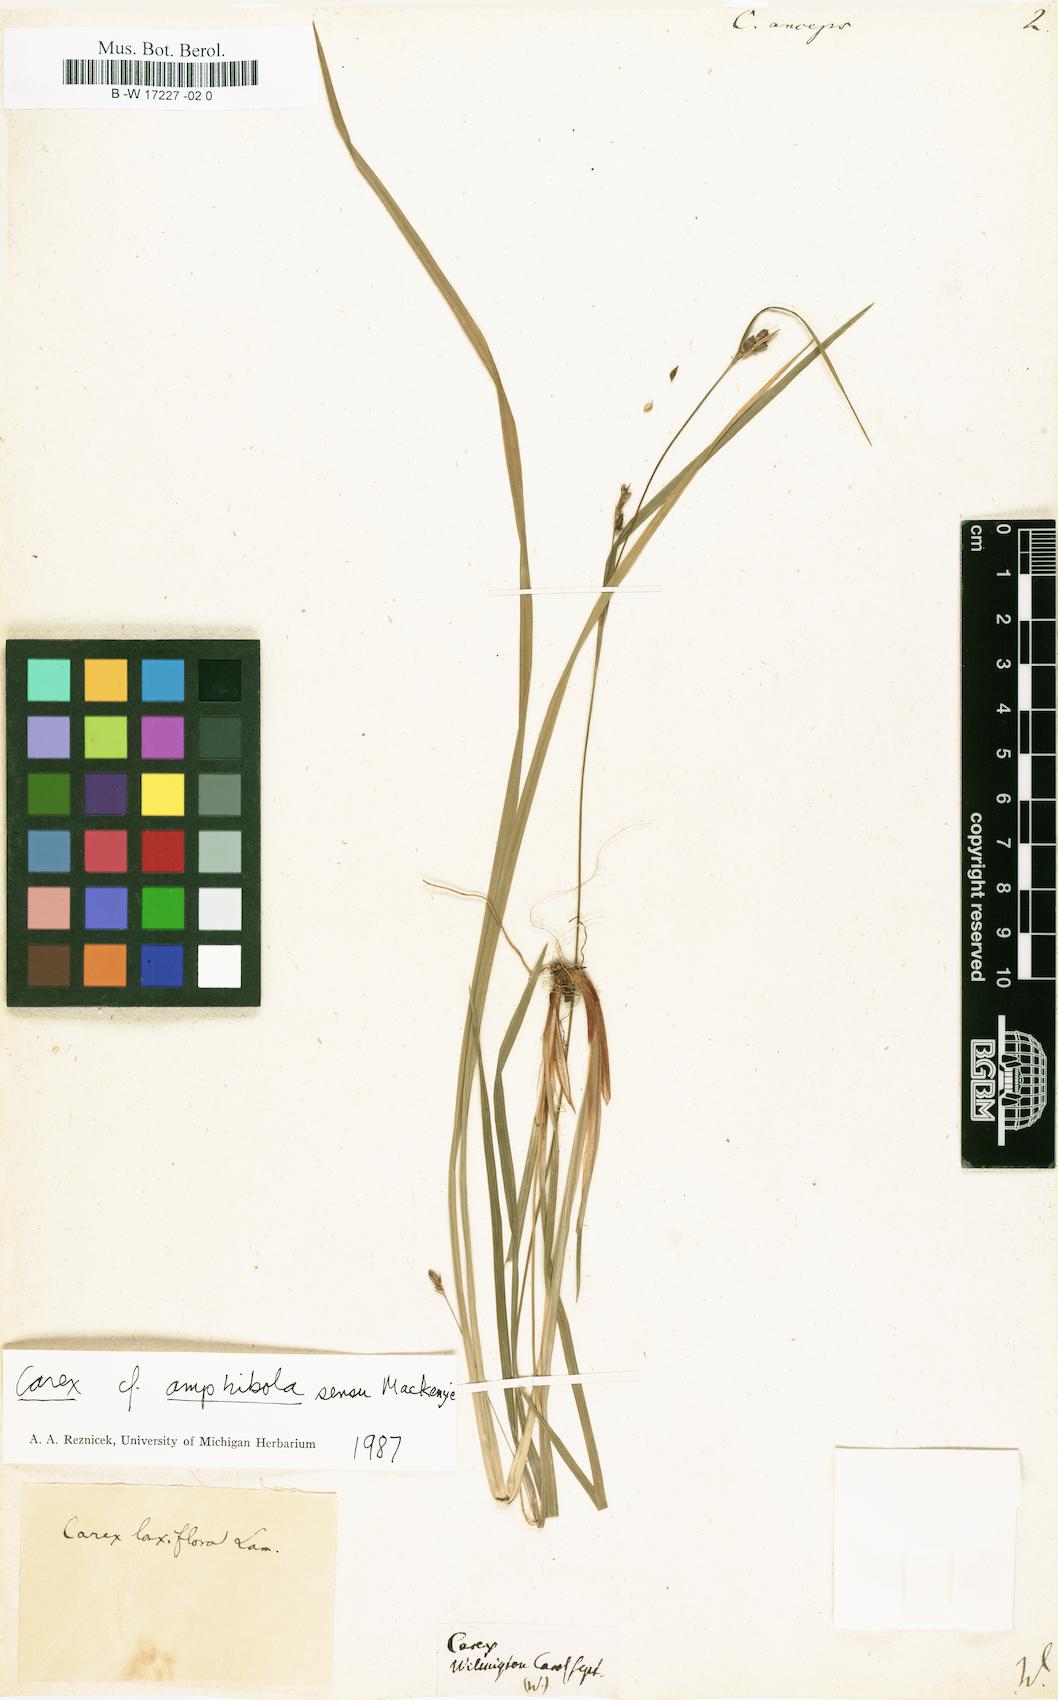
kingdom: Plantae
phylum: Tracheophyta
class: Liliopsida
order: Poales
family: Cyperaceae
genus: Carex
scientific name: Carex laxiflora
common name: Beech wood sedge
